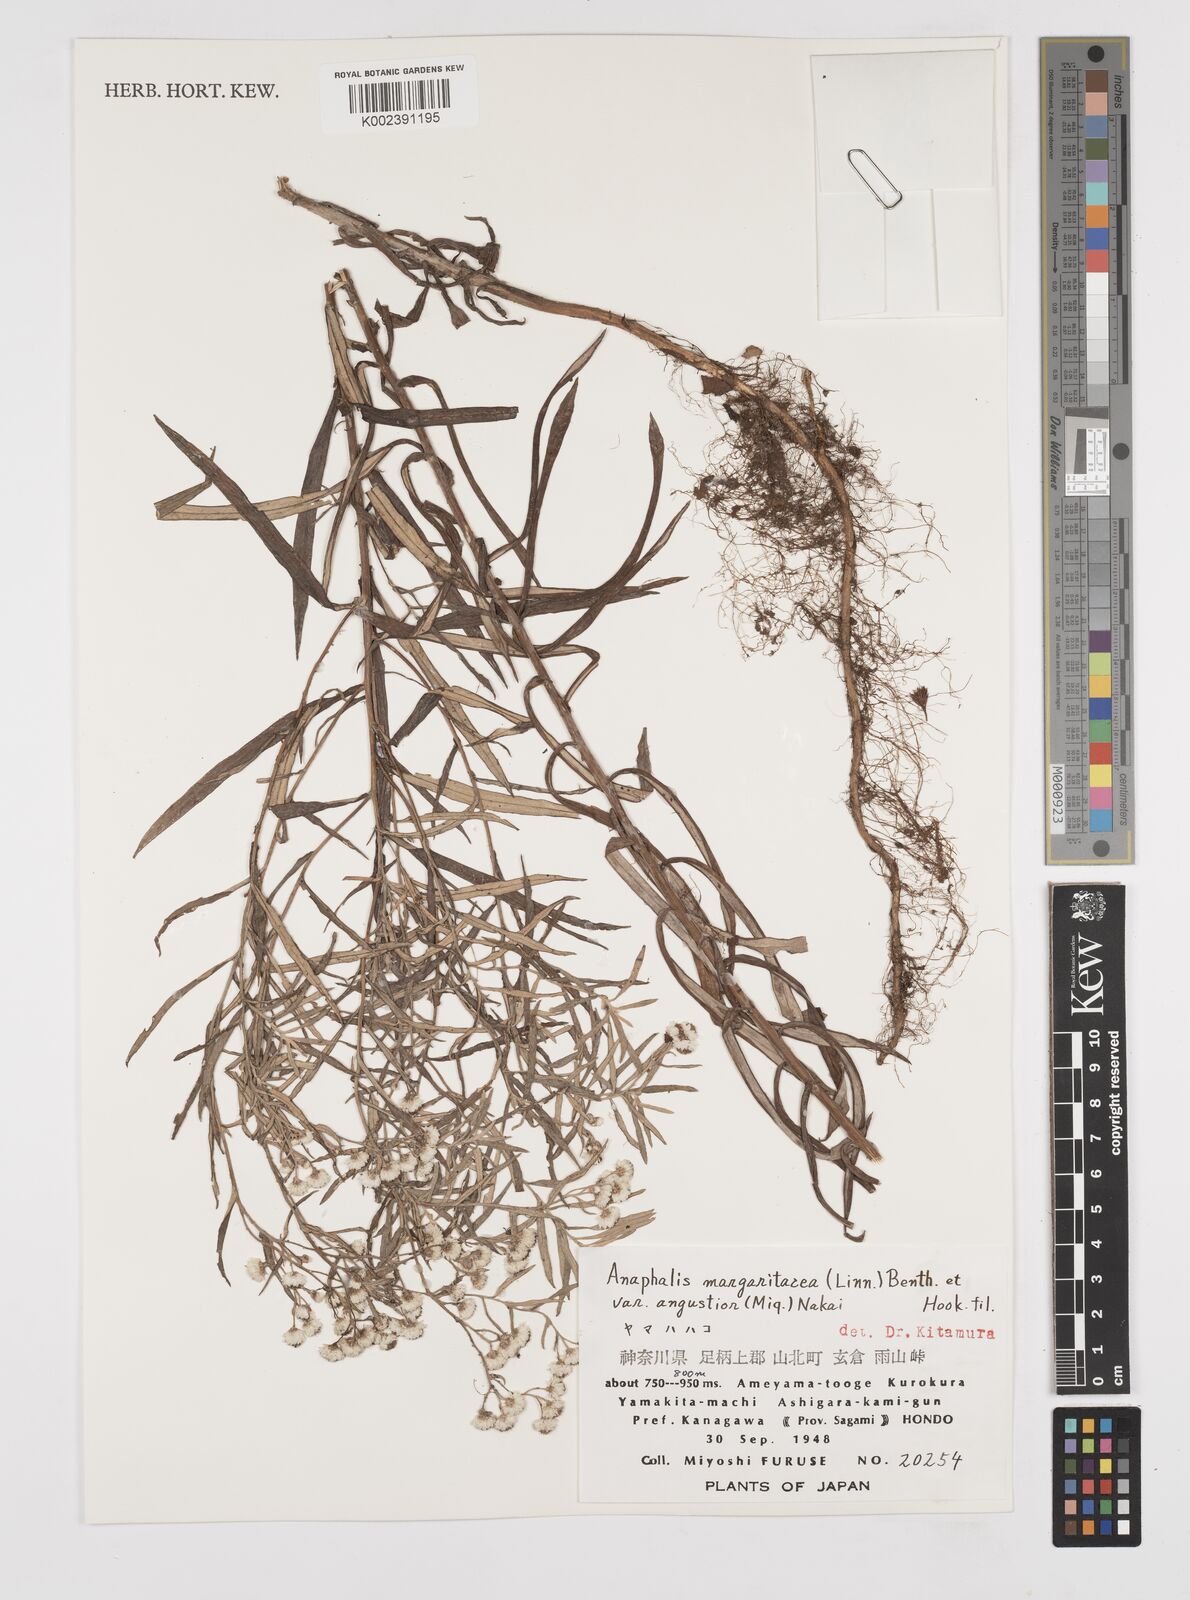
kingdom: Plantae
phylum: Tracheophyta
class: Magnoliopsida
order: Asterales
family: Asteraceae
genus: Anaphalis
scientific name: Anaphalis margaritacea
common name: Pearly everlasting
